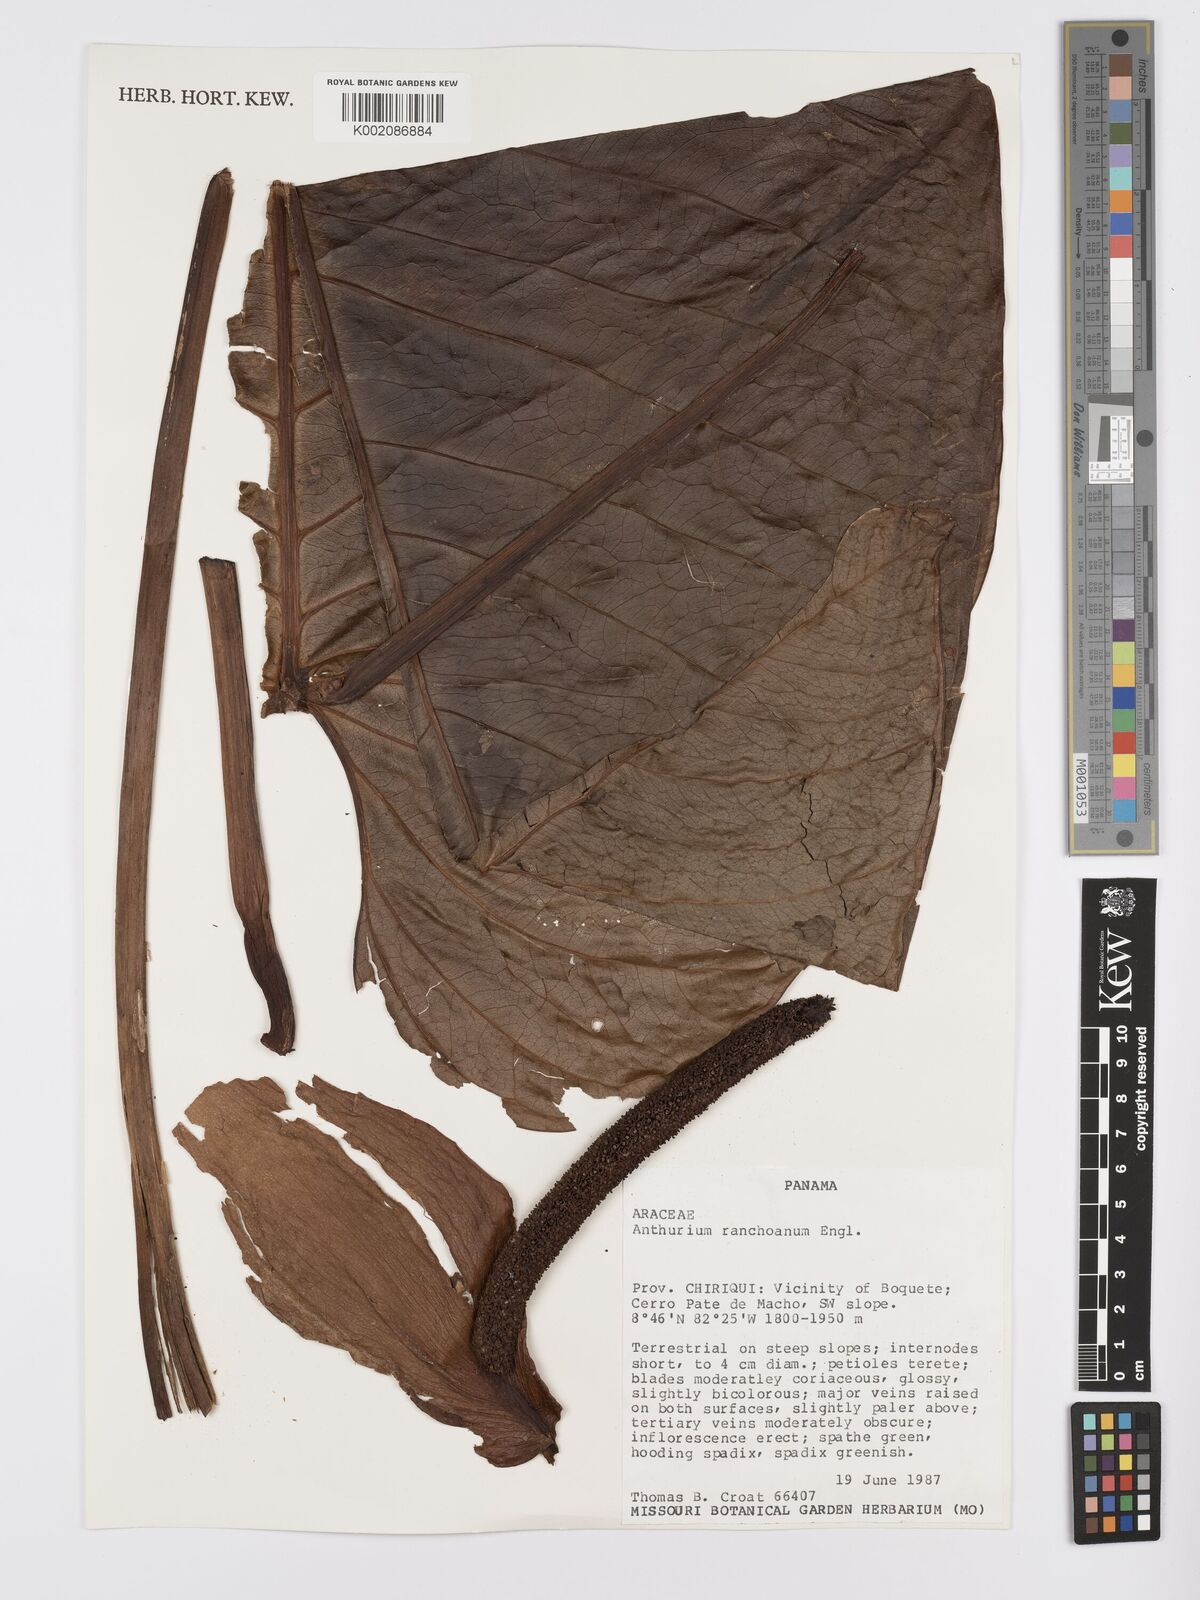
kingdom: Plantae
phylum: Tracheophyta
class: Liliopsida
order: Alismatales
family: Araceae
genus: Anthurium
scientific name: Anthurium ranchoanum
